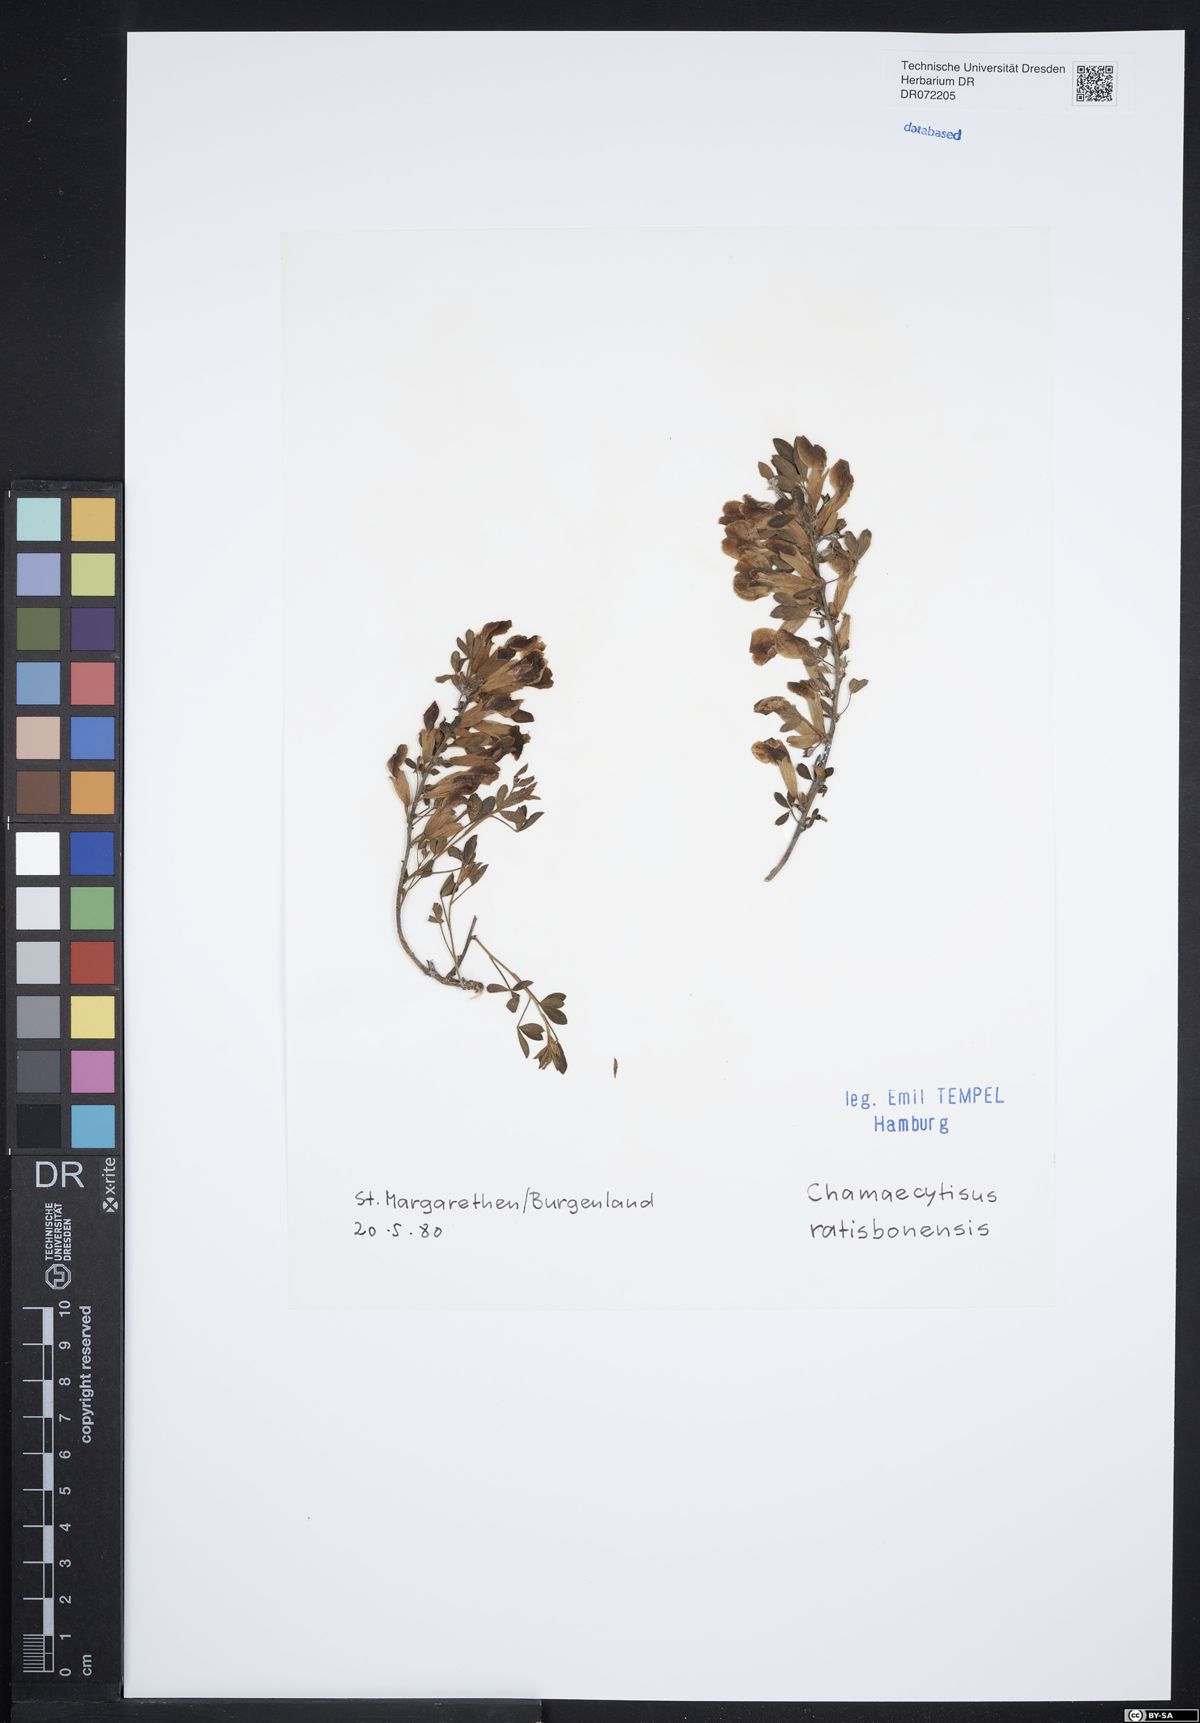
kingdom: Plantae
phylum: Tracheophyta
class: Magnoliopsida
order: Fabales
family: Fabaceae
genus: Chamaecytisus
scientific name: Chamaecytisus ratisbonensis
